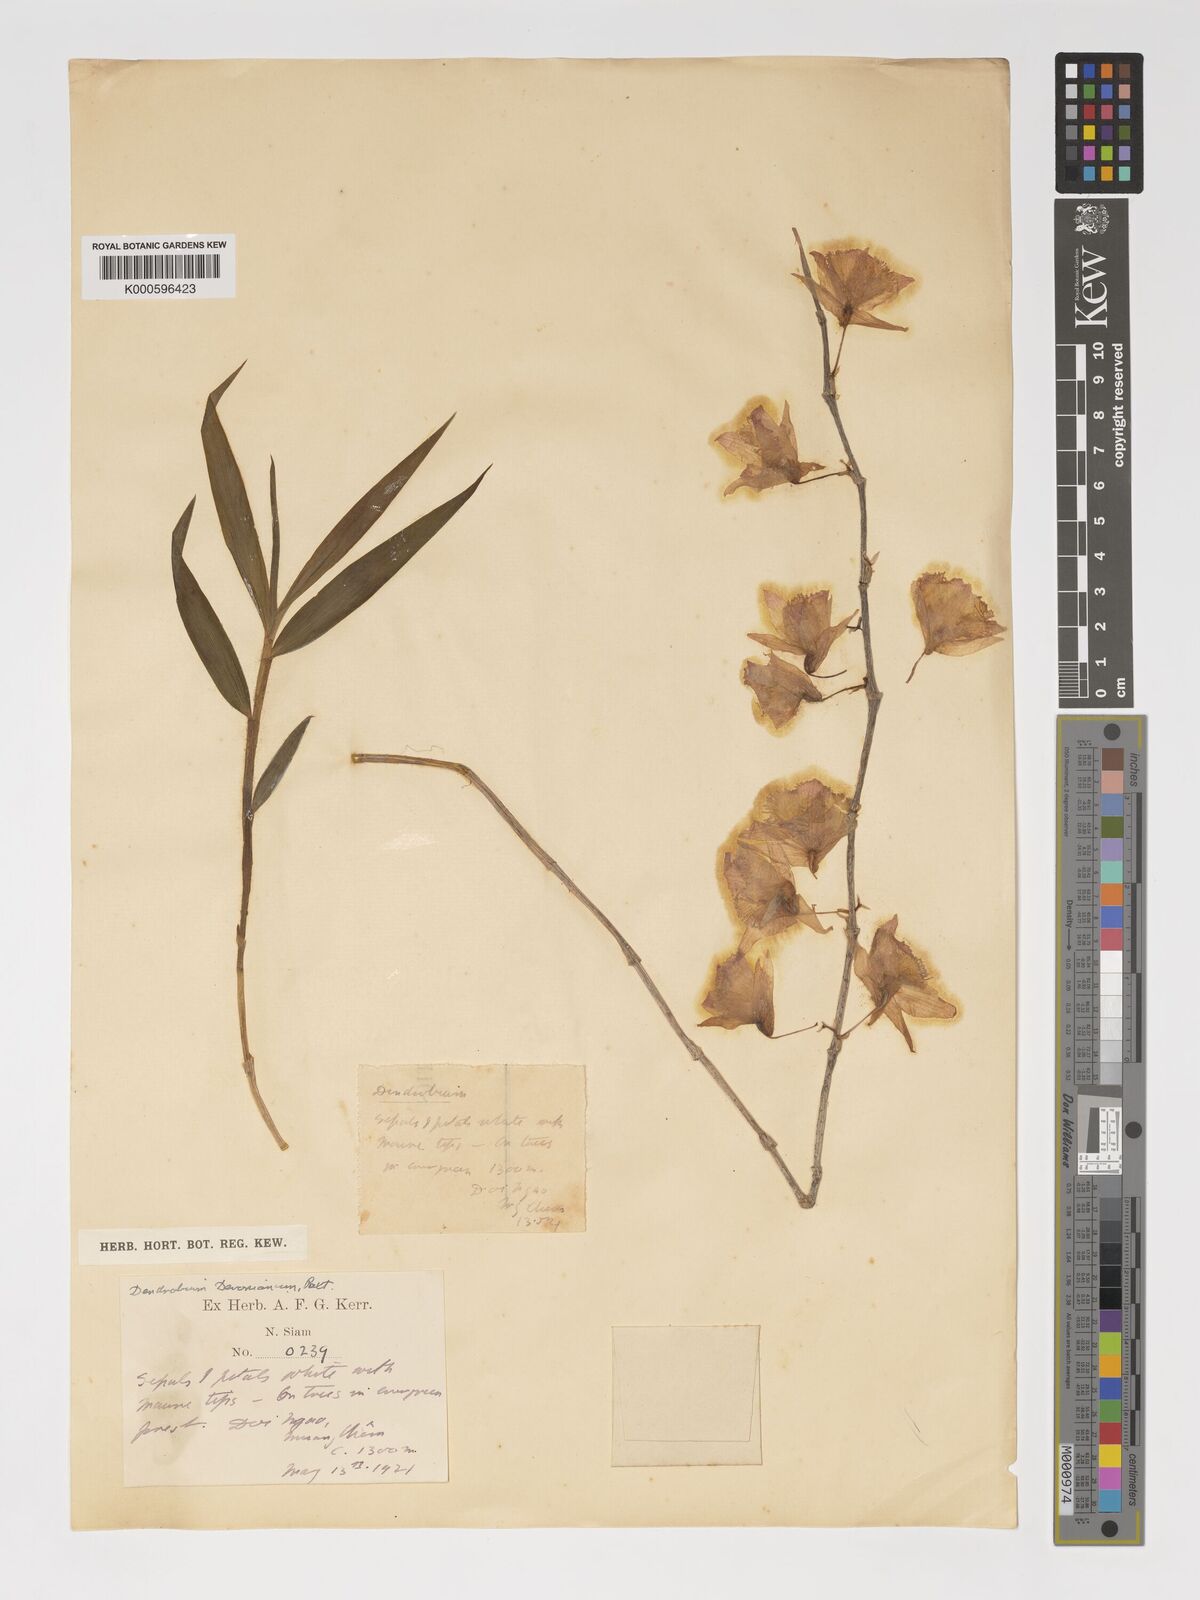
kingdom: Plantae
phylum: Tracheophyta
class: Liliopsida
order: Asparagales
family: Orchidaceae
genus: Dendrobium
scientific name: Dendrobium devonianum
